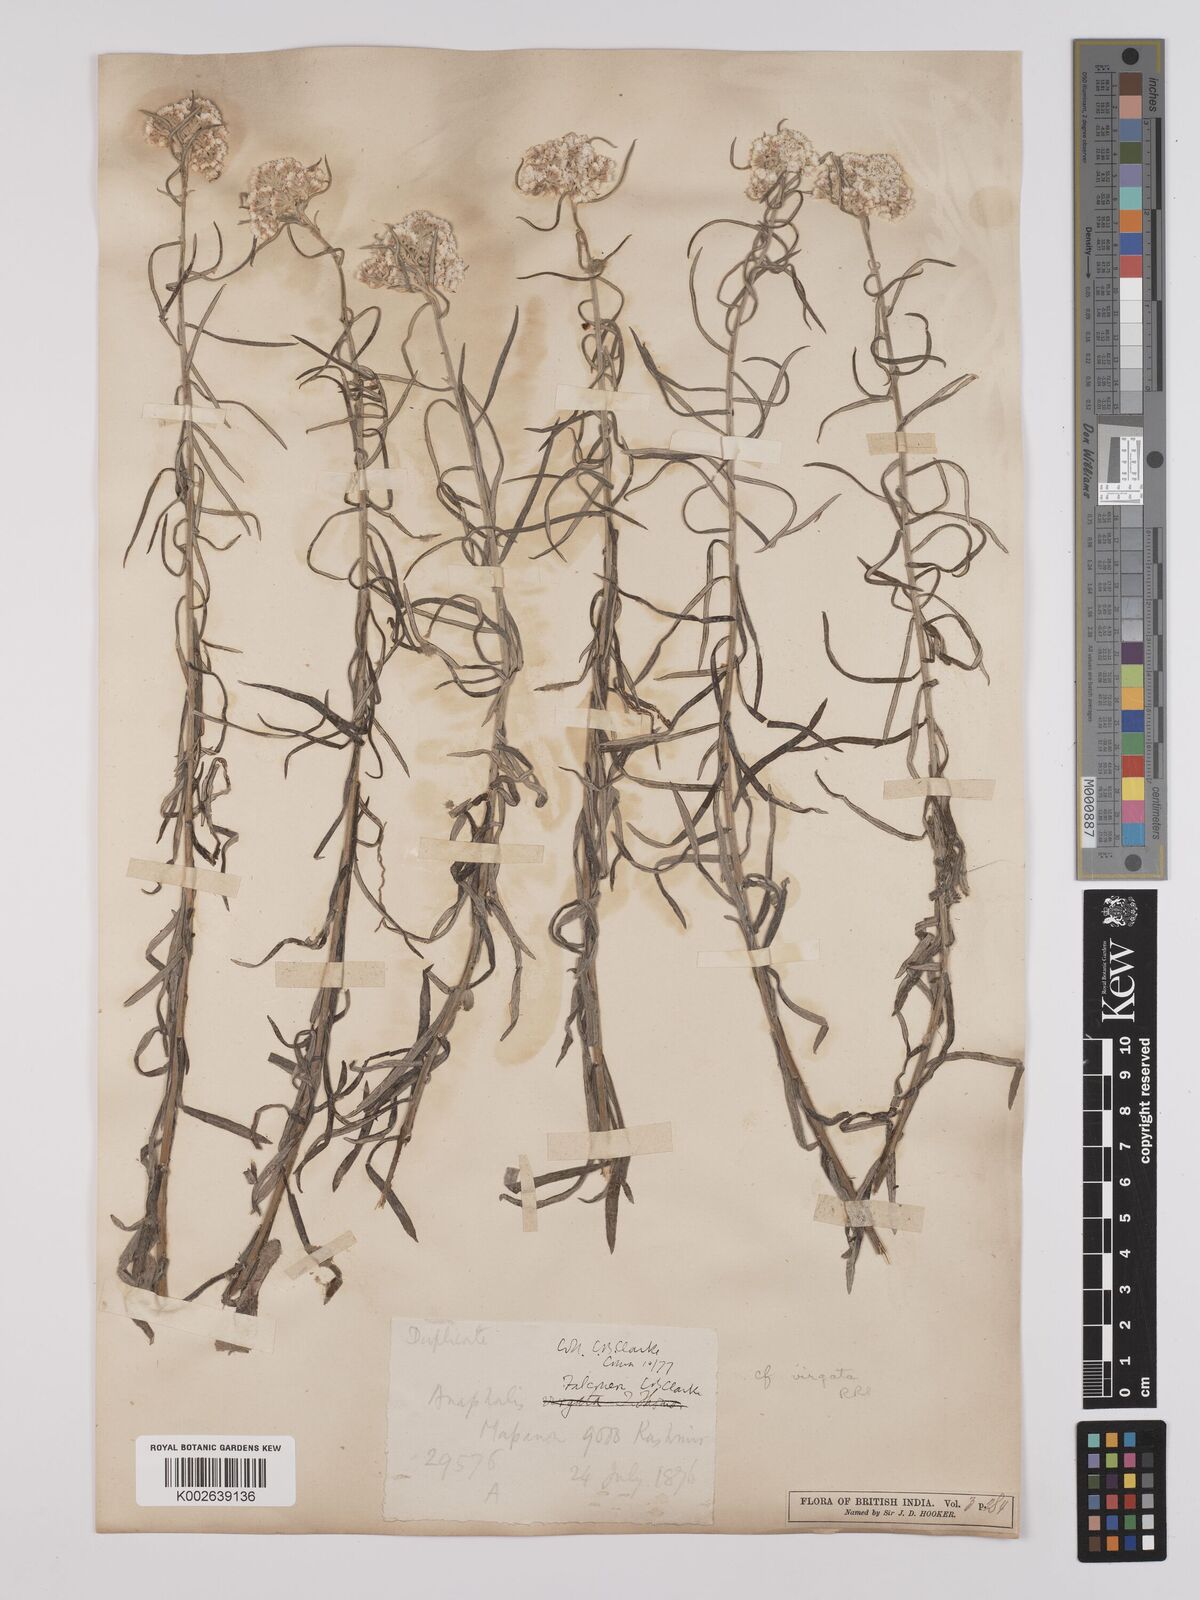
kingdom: Plantae
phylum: Tracheophyta
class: Magnoliopsida
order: Asterales
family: Asteraceae
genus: Anaphalis
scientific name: Anaphalis contorta
